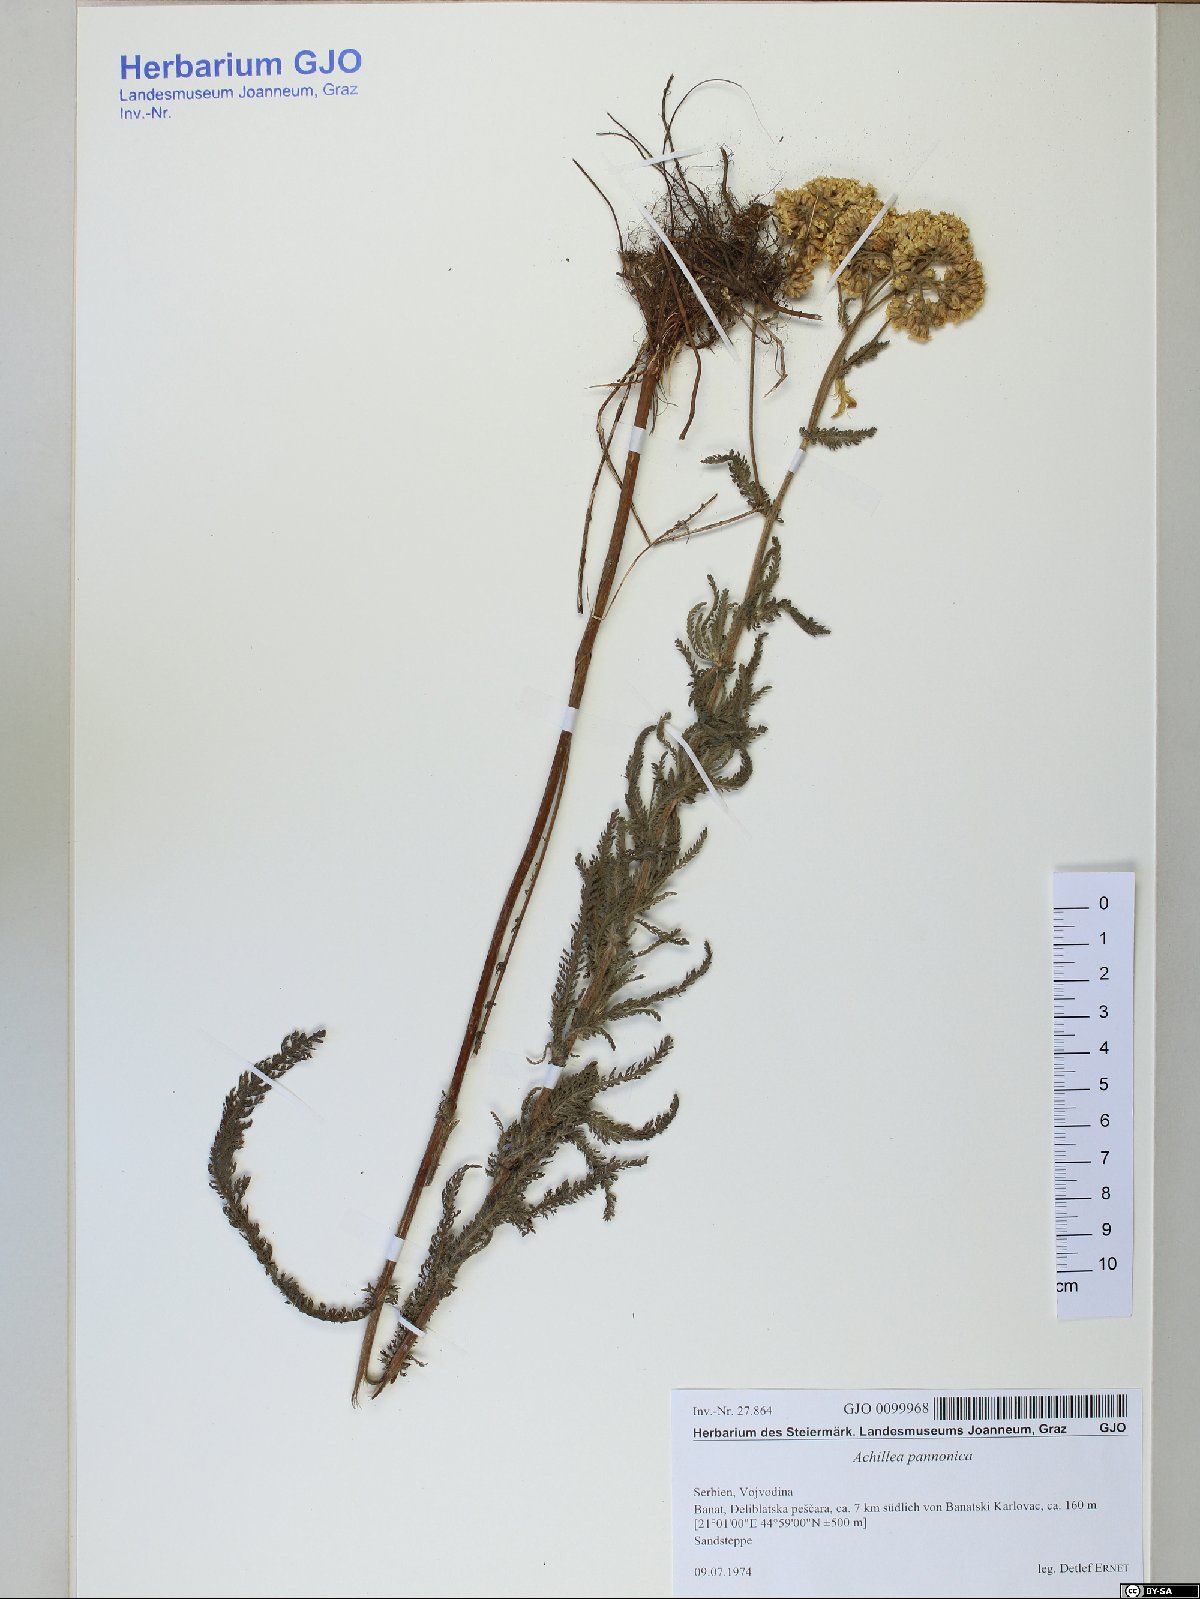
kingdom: Plantae
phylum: Tracheophyta
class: Magnoliopsida
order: Asterales
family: Asteraceae
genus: Achillea
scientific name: Achillea pannonica
